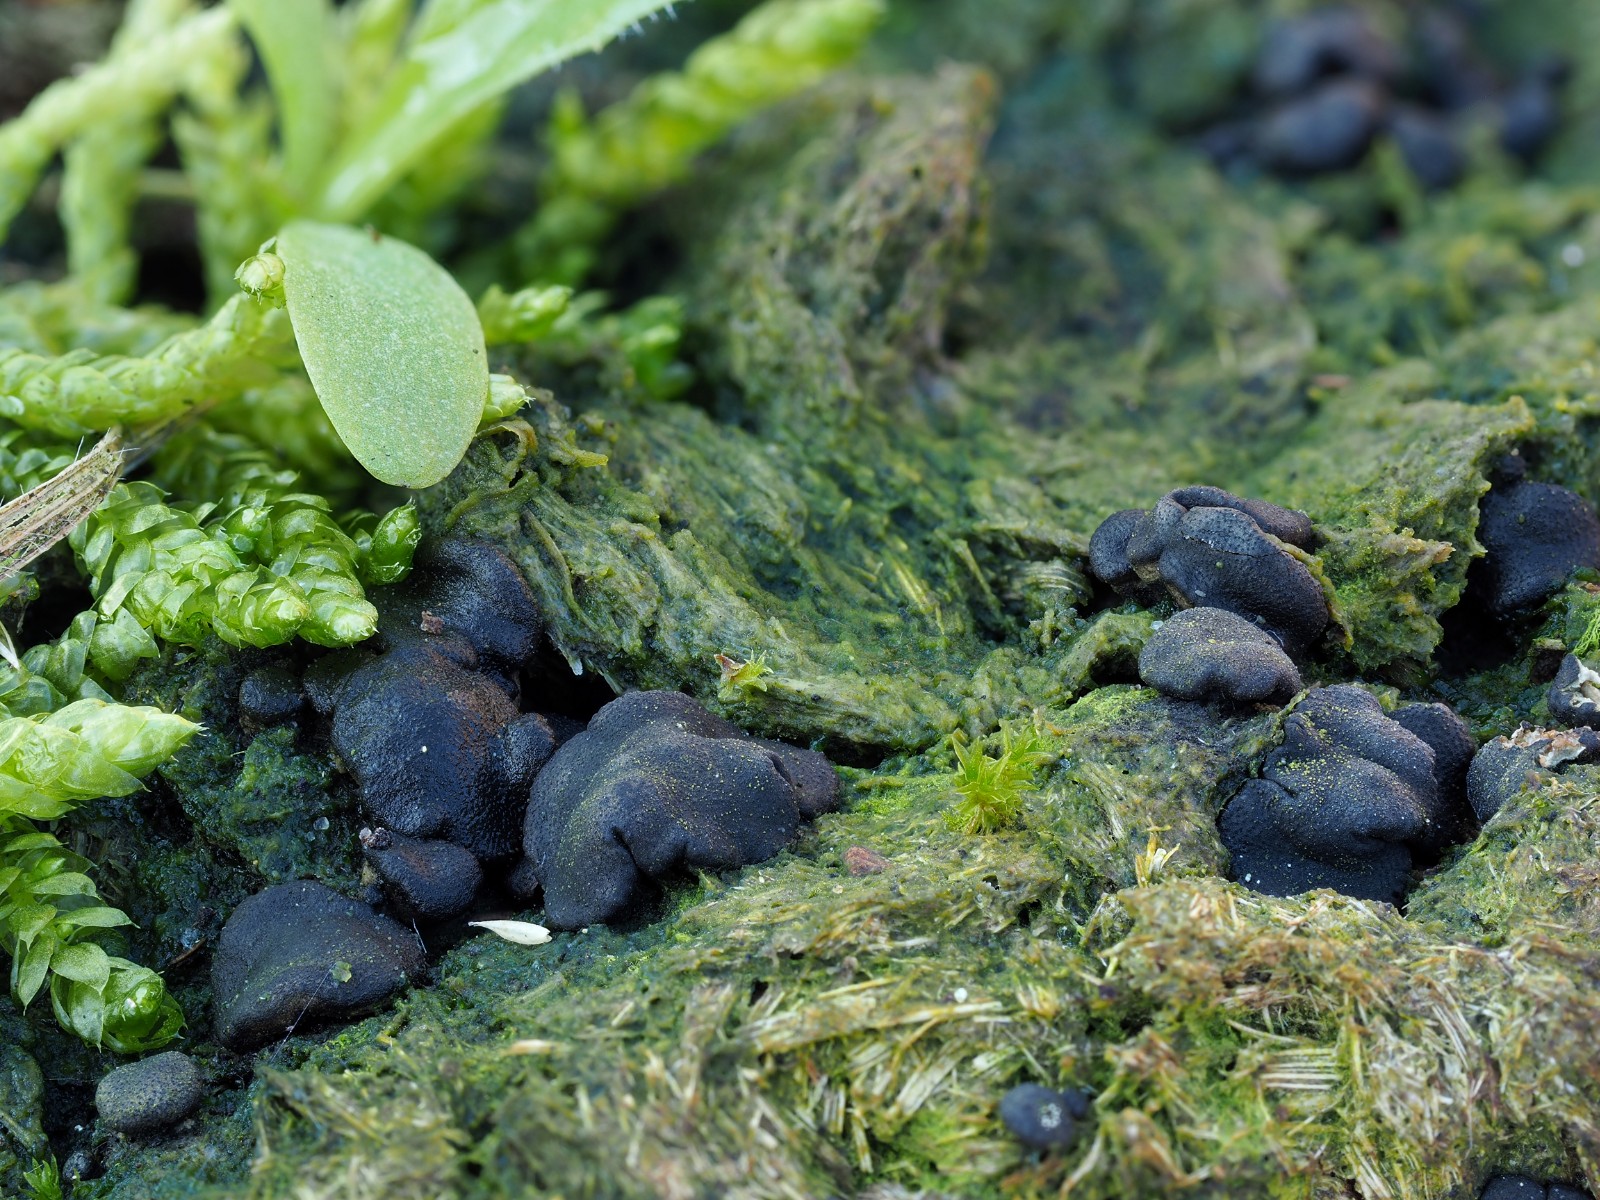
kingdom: Fungi
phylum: Ascomycota
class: Sordariomycetes
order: Hypocreales
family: Hypocreaceae
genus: Trichoderma
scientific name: Trichoderma citrinoviride
